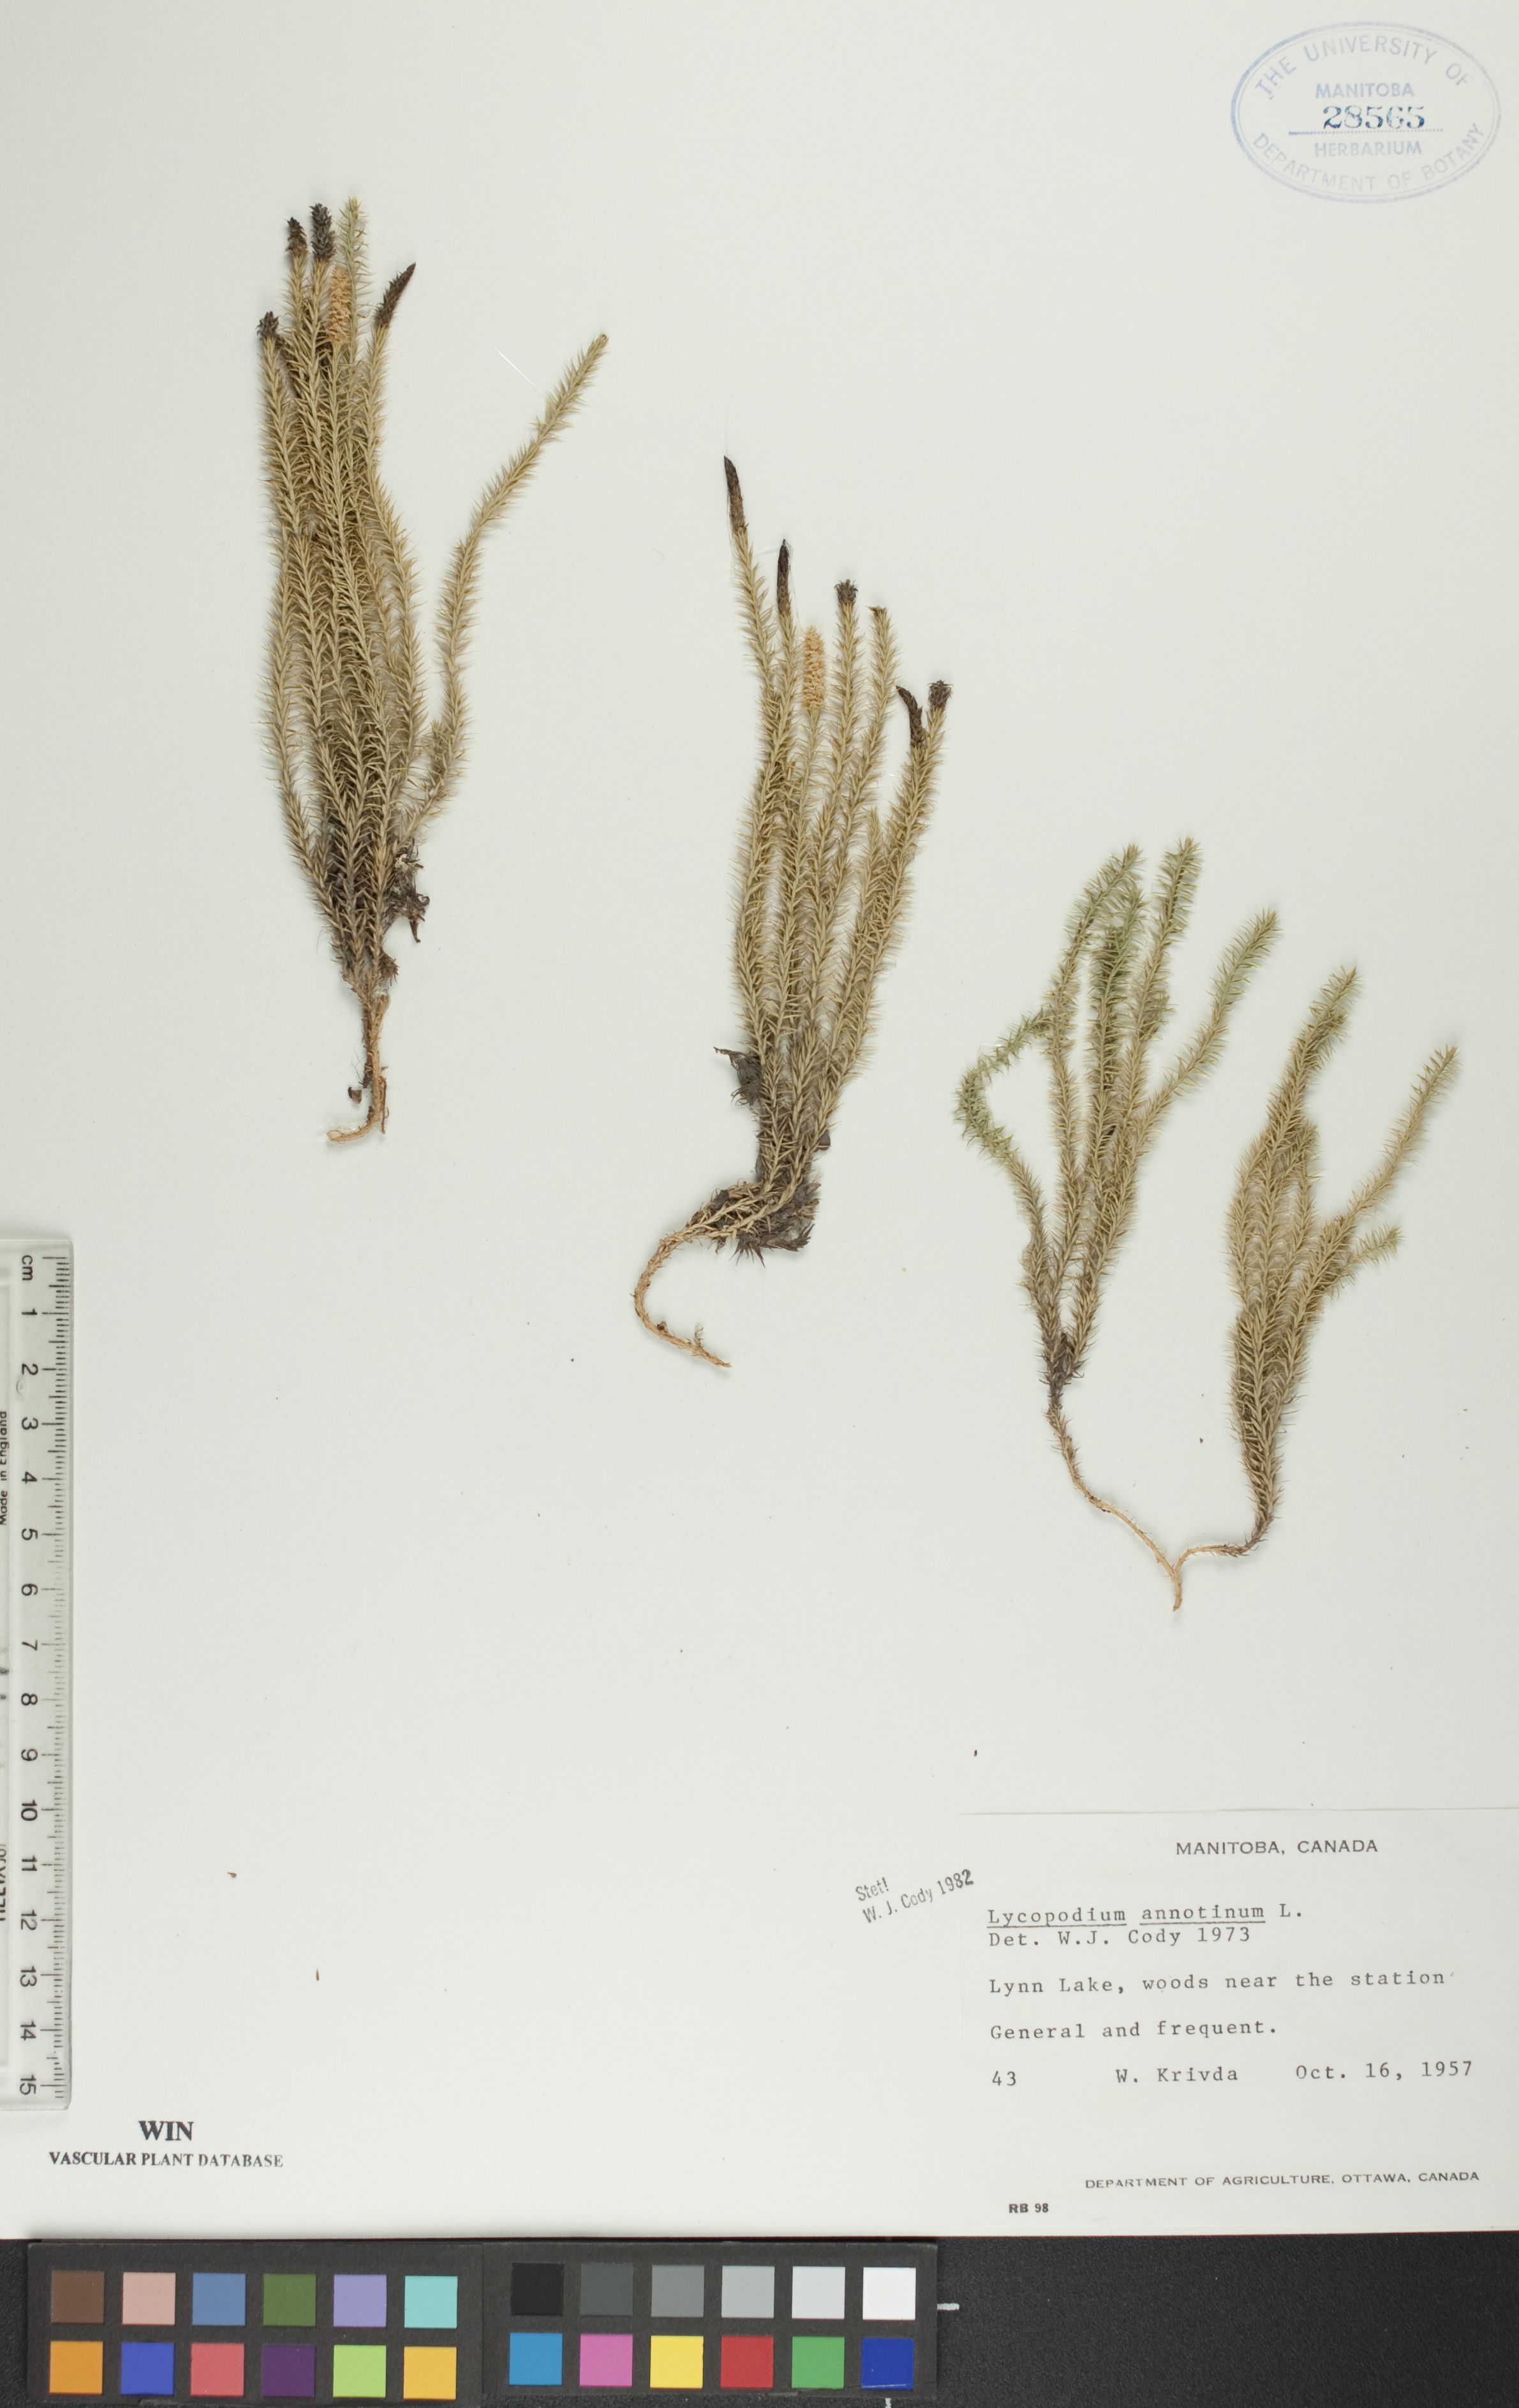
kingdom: Plantae
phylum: Tracheophyta
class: Lycopodiopsida
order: Lycopodiales
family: Lycopodiaceae
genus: Spinulum
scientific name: Spinulum annotinum
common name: Interrupted club-moss
